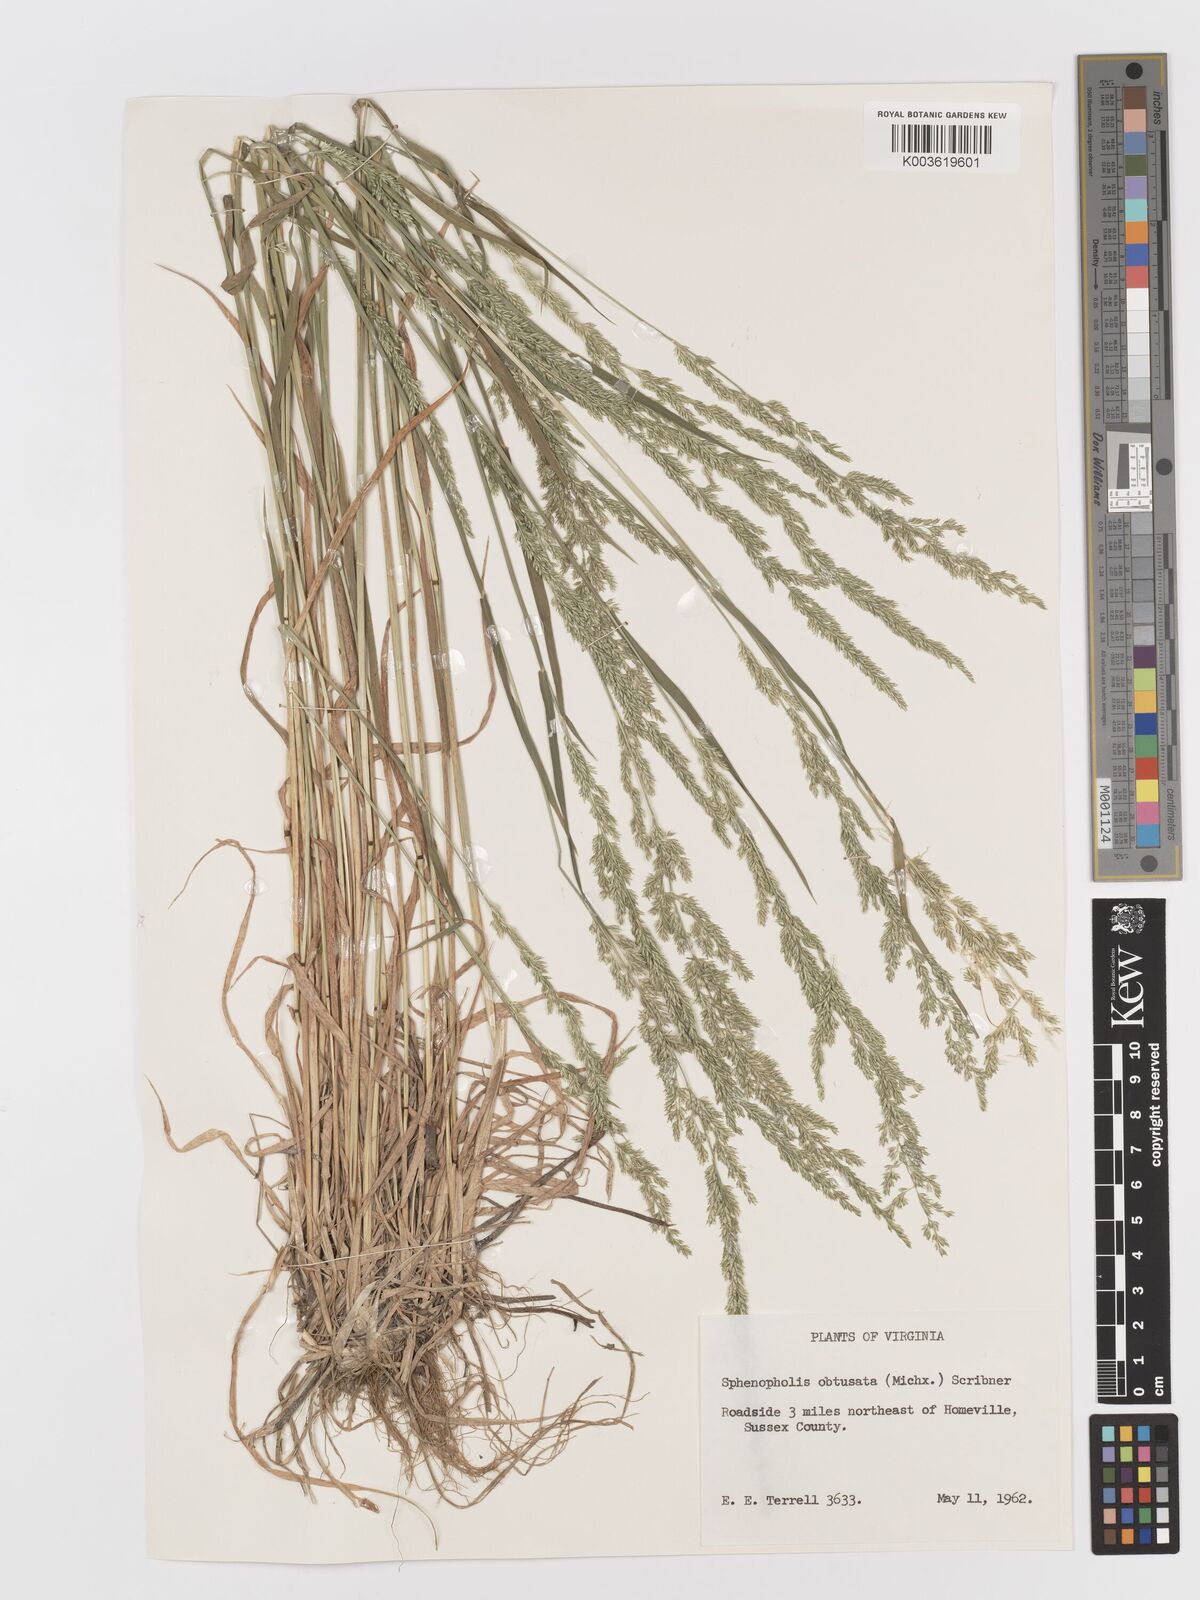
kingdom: Plantae
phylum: Tracheophyta
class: Liliopsida
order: Poales
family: Poaceae
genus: Sphenopholis
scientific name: Sphenopholis obtusata
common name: Prairie grass
